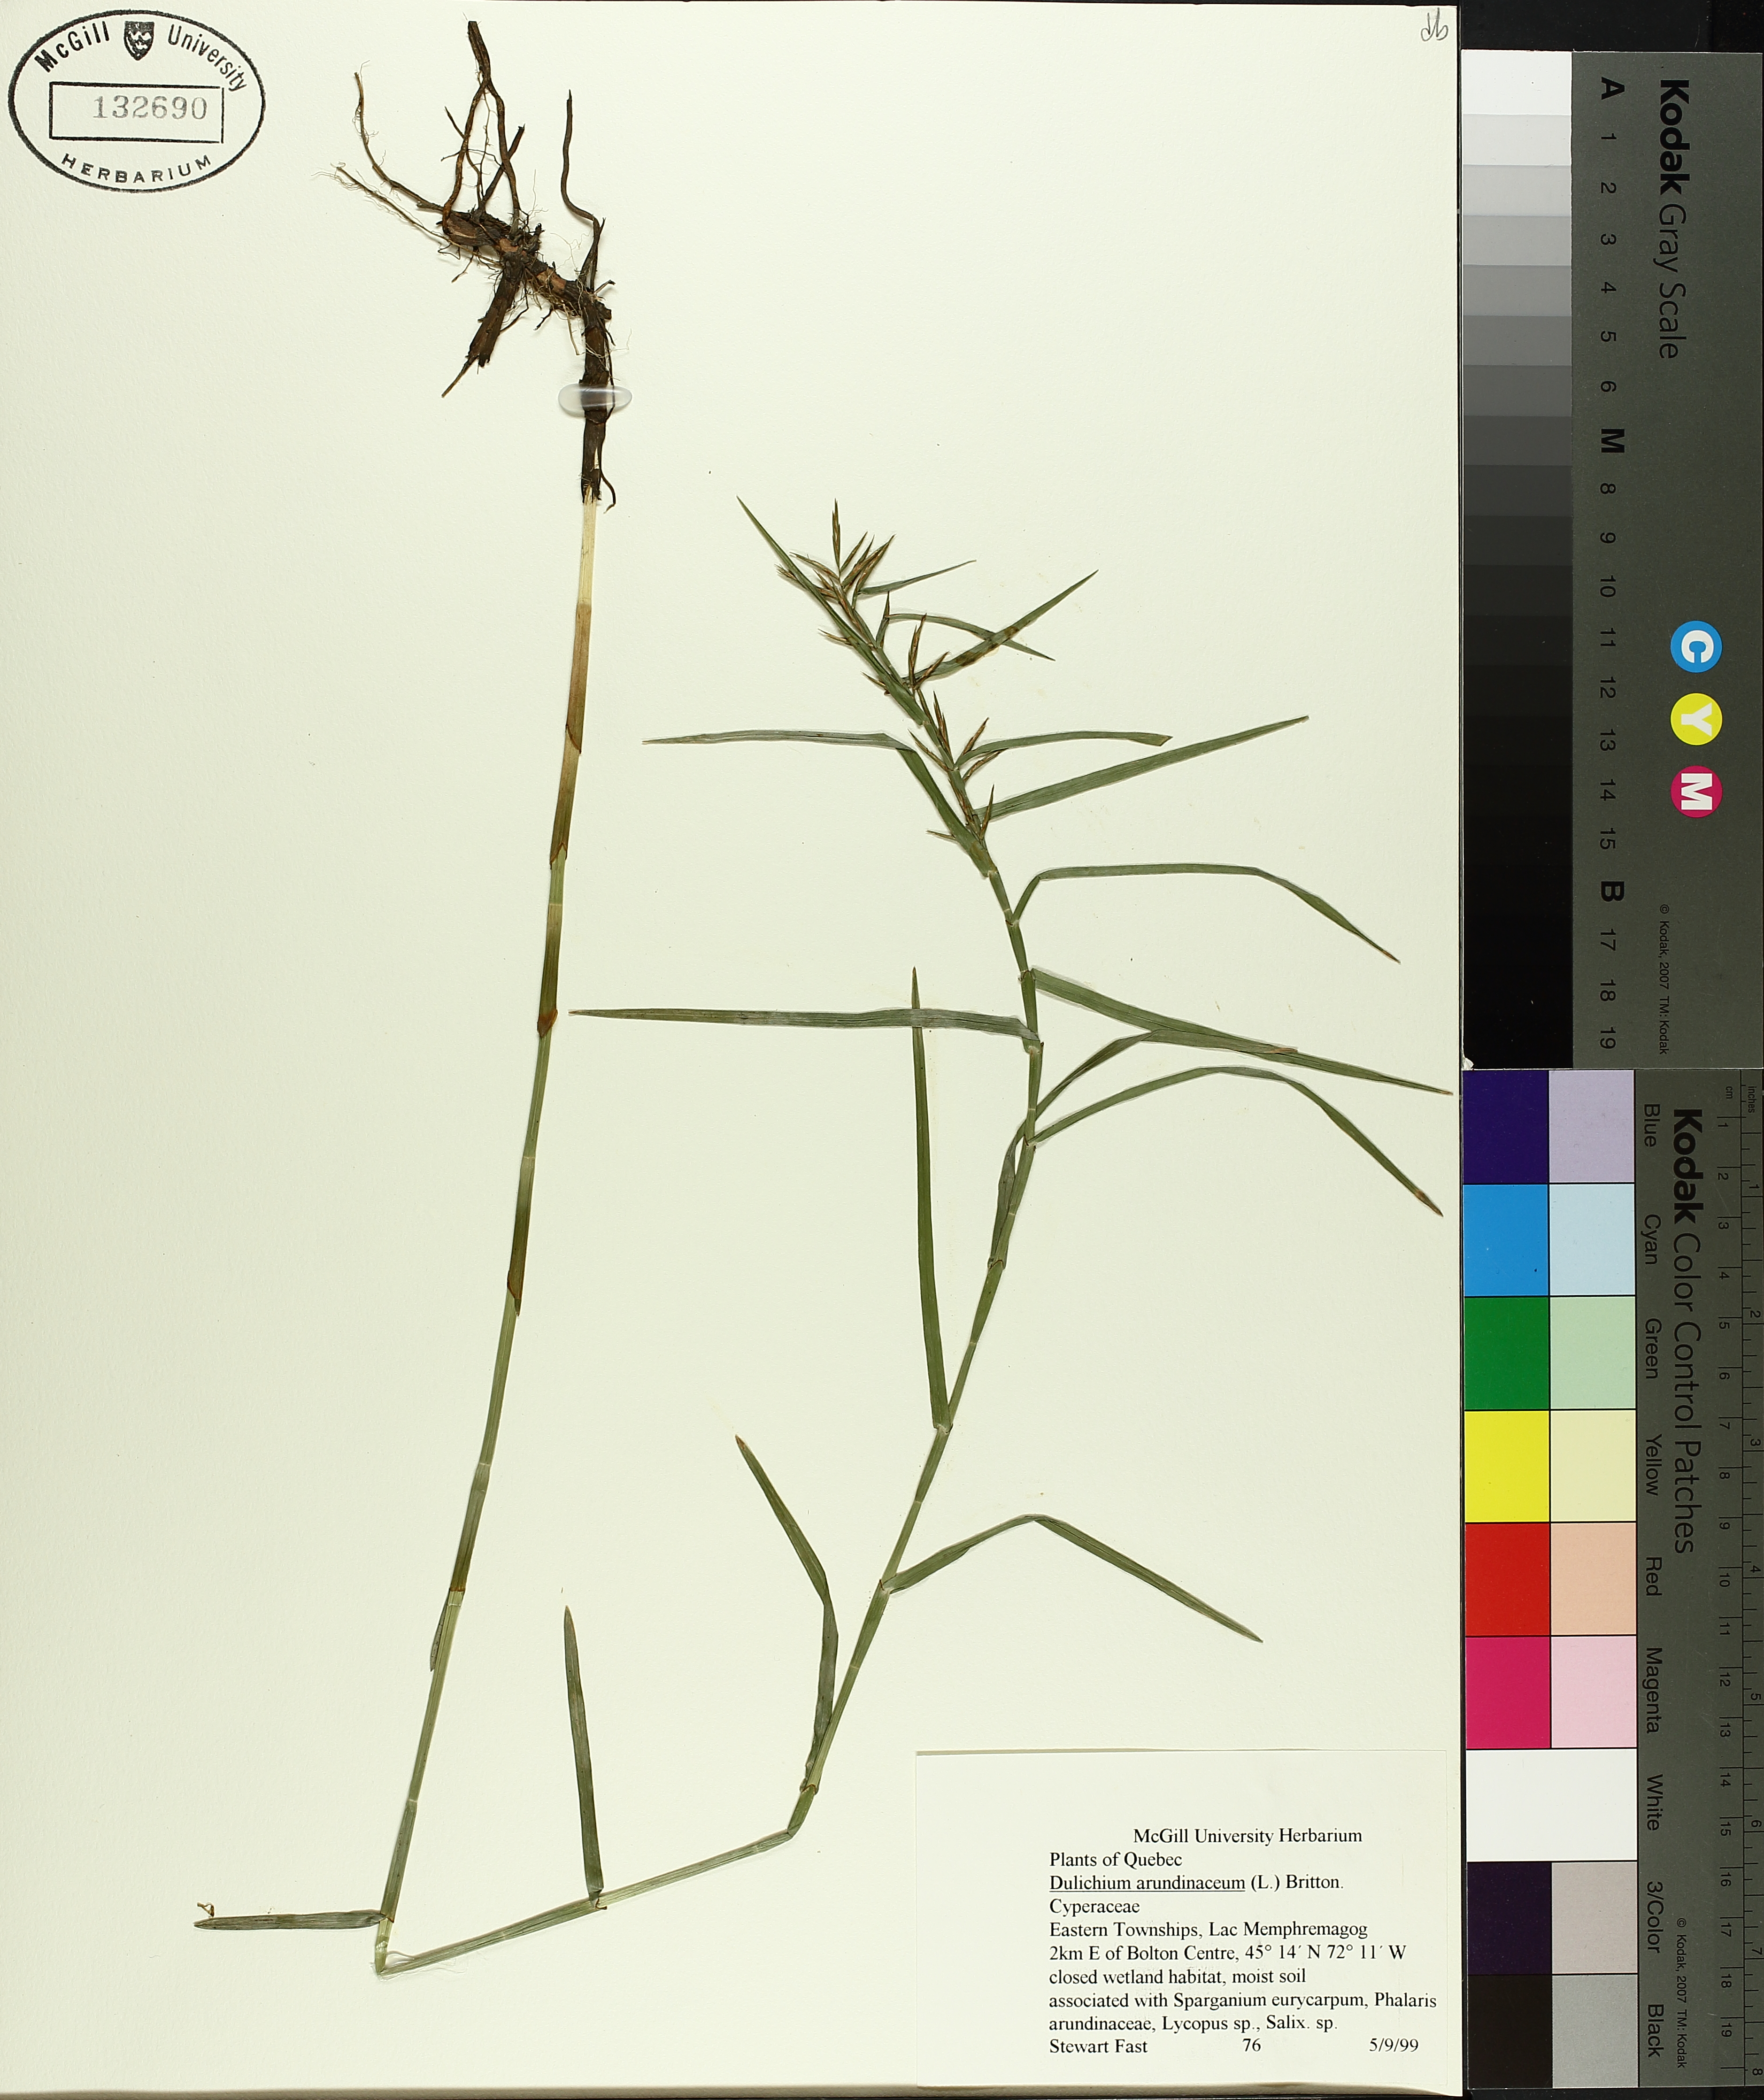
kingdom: Plantae
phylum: Tracheophyta
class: Liliopsida
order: Poales
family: Cyperaceae
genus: Dulichium
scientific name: Dulichium arundinaceum
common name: Three-way sedge
